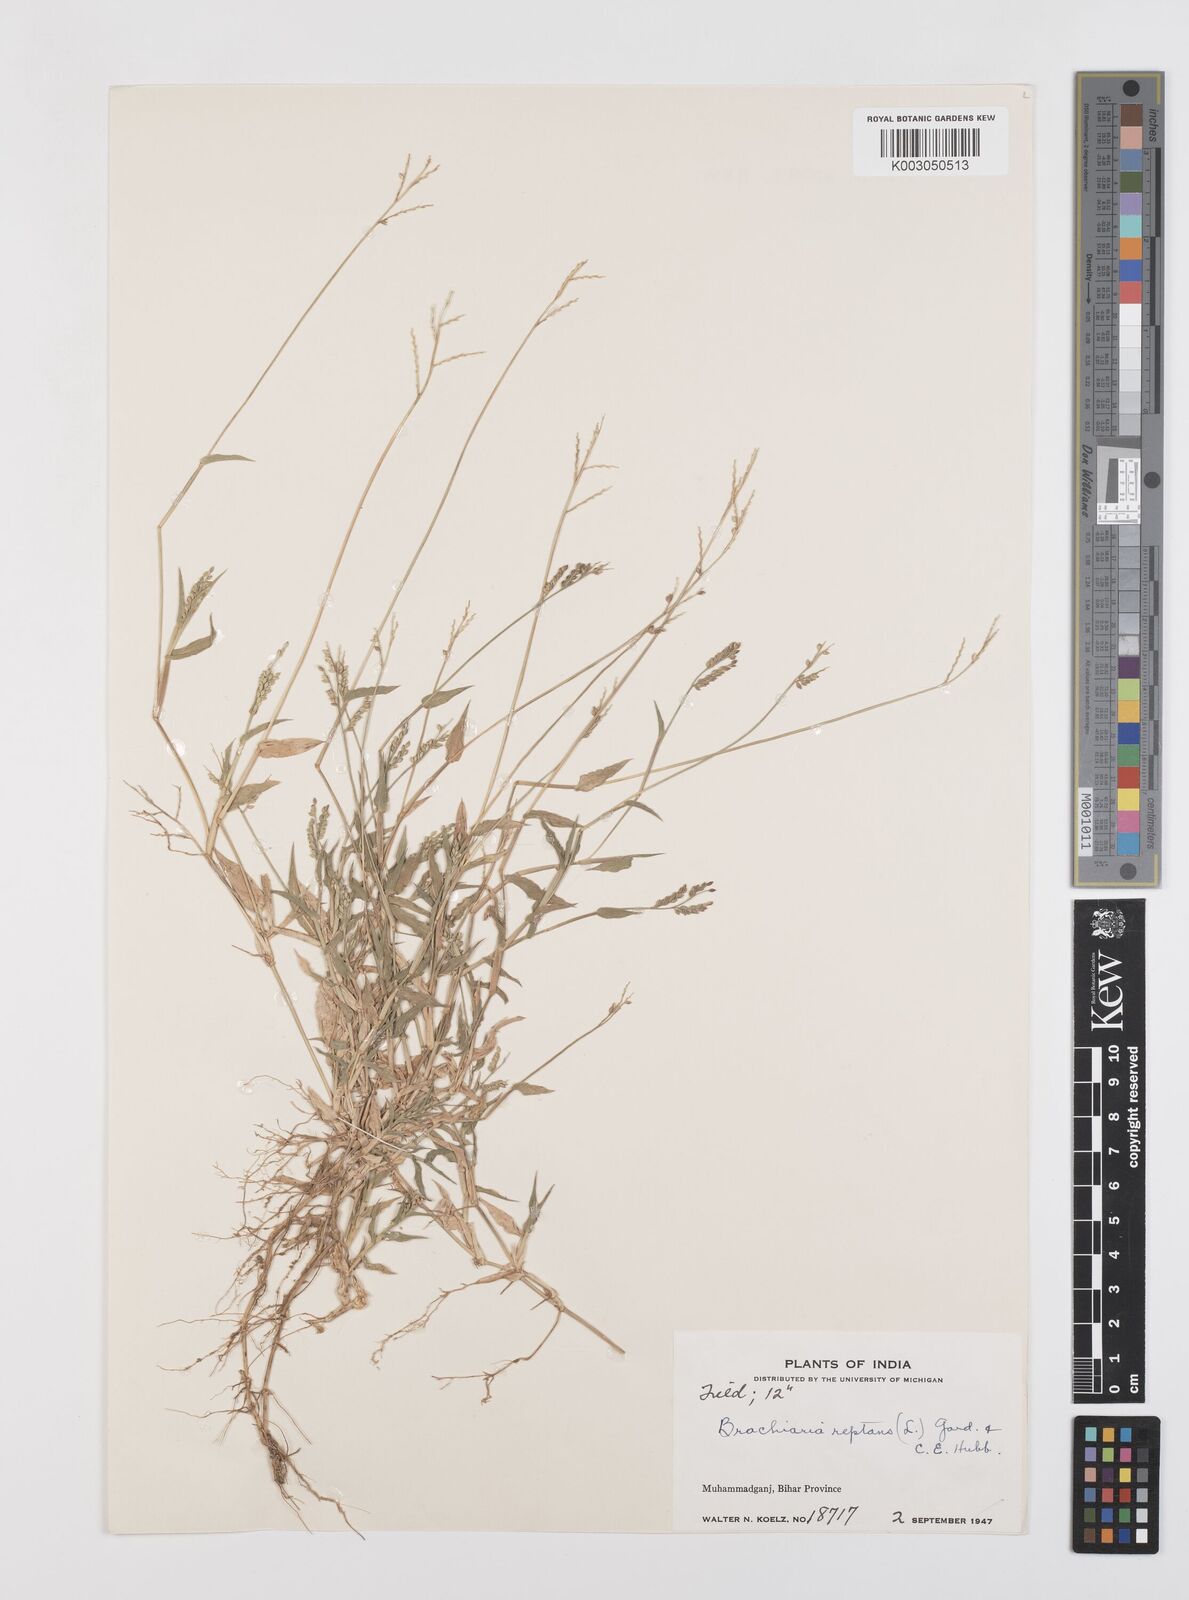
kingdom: Plantae
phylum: Tracheophyta
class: Liliopsida
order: Poales
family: Poaceae
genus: Urochloa
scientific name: Urochloa reptans
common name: Sprawling signalgrass
